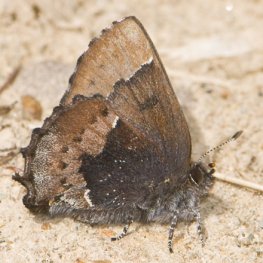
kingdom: Animalia
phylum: Arthropoda
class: Insecta
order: Lepidoptera
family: Lycaenidae
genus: Incisalia
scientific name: Incisalia henrici
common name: Henry's Elfin
